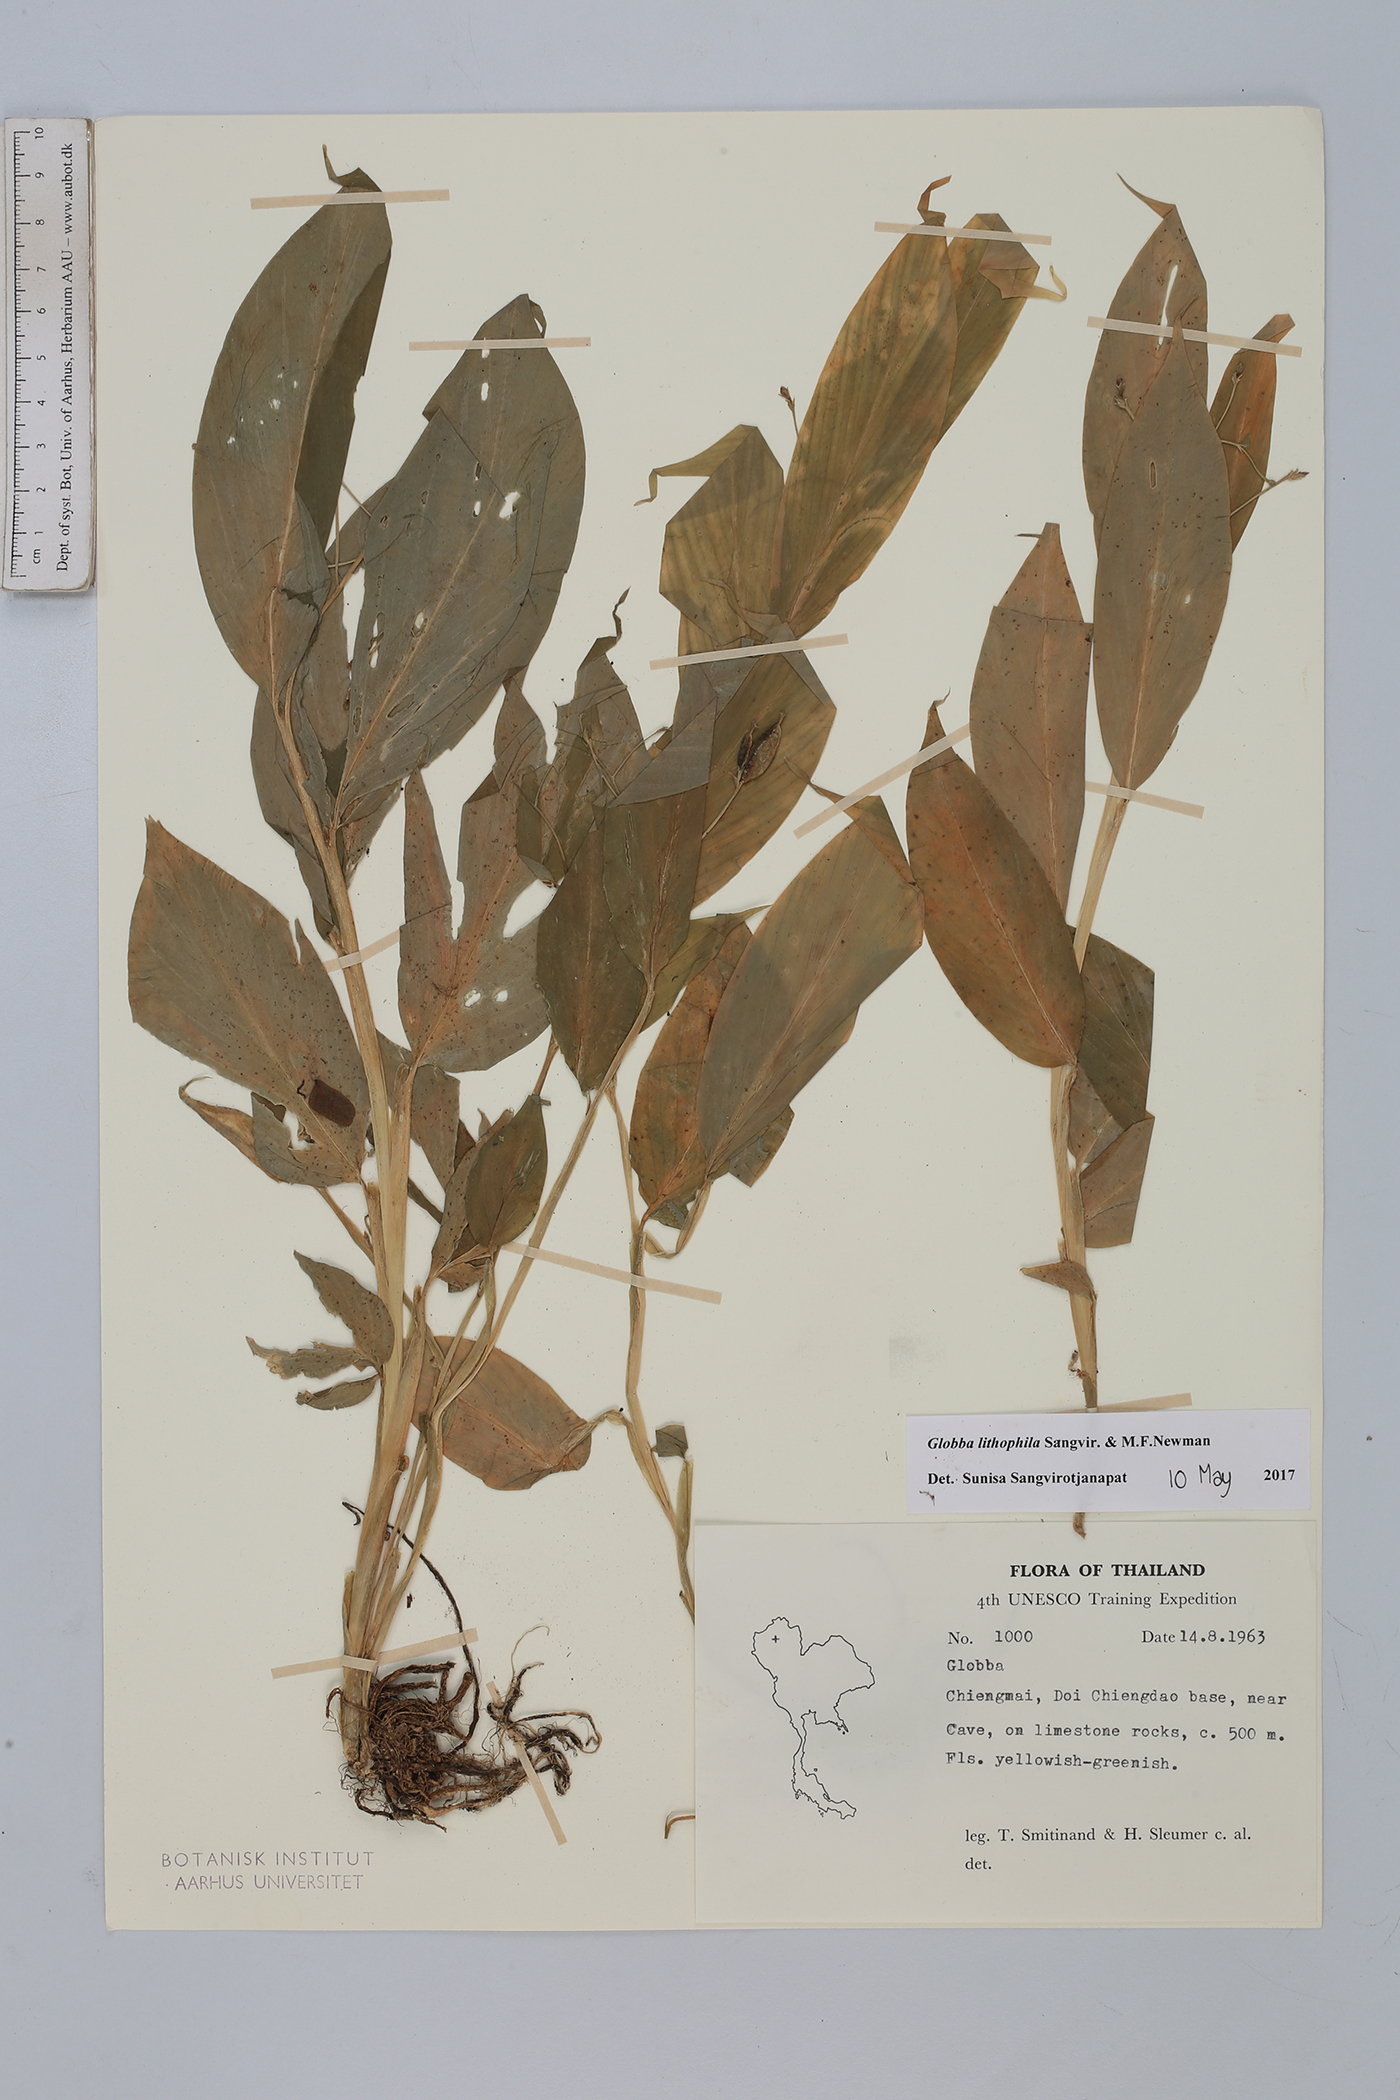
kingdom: Plantae
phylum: Tracheophyta
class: Liliopsida
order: Zingiberales
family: Zingiberaceae
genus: Globba
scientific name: Globba lithophila
